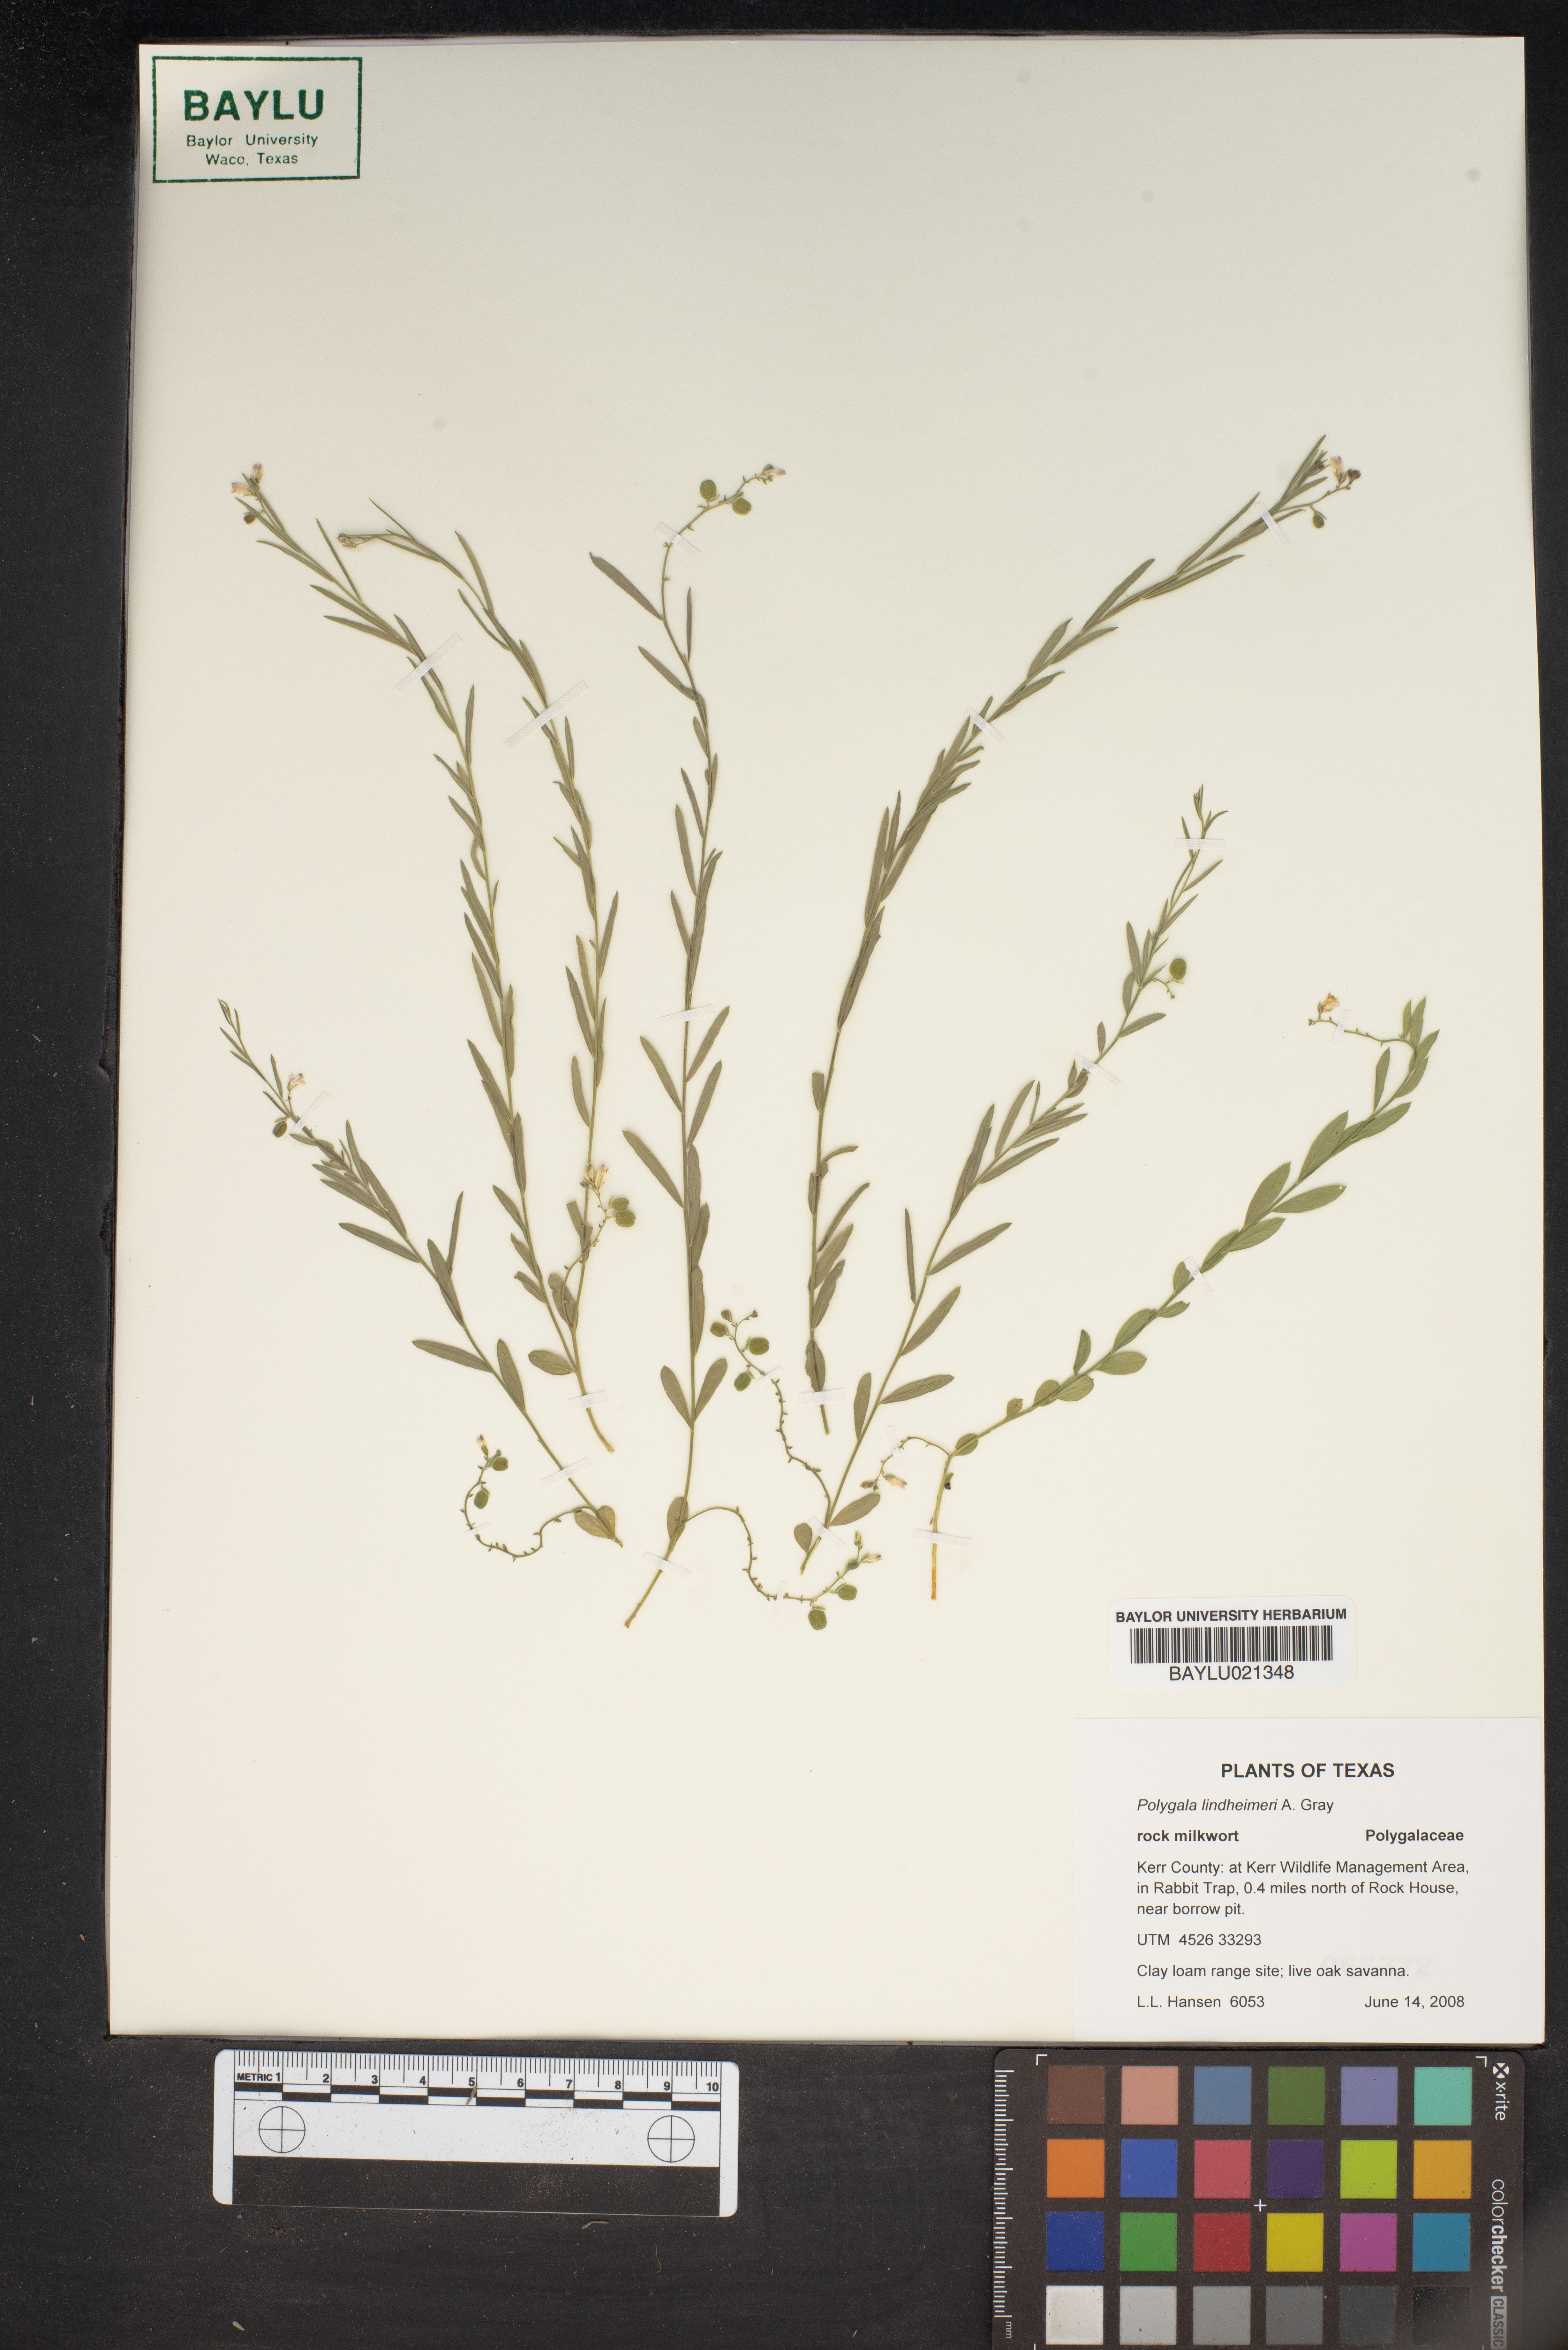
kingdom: Plantae
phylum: Tracheophyta
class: Magnoliopsida
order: Fabales
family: Polygalaceae
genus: Rhinotropis
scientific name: Rhinotropis lindheimeri
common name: Shrubby milkwort
